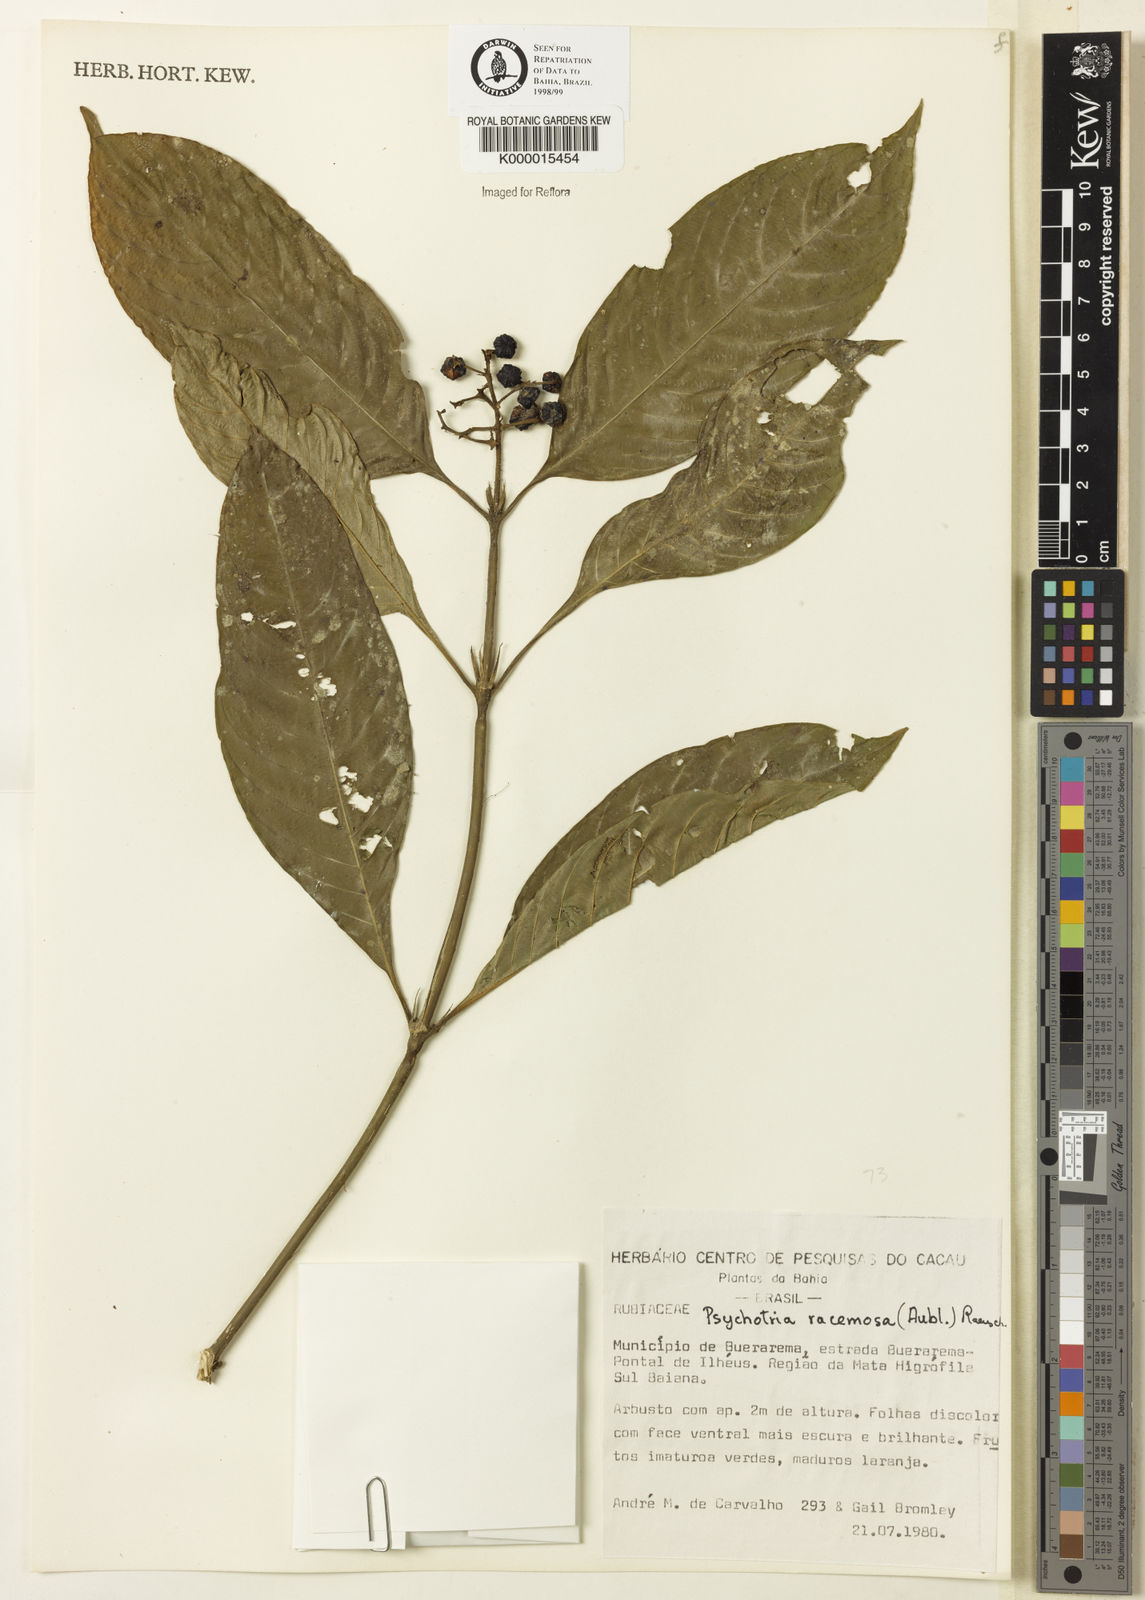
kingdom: Plantae
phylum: Tracheophyta
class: Magnoliopsida
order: Gentianales
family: Rubiaceae
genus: Psychotria
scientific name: Psychotria
